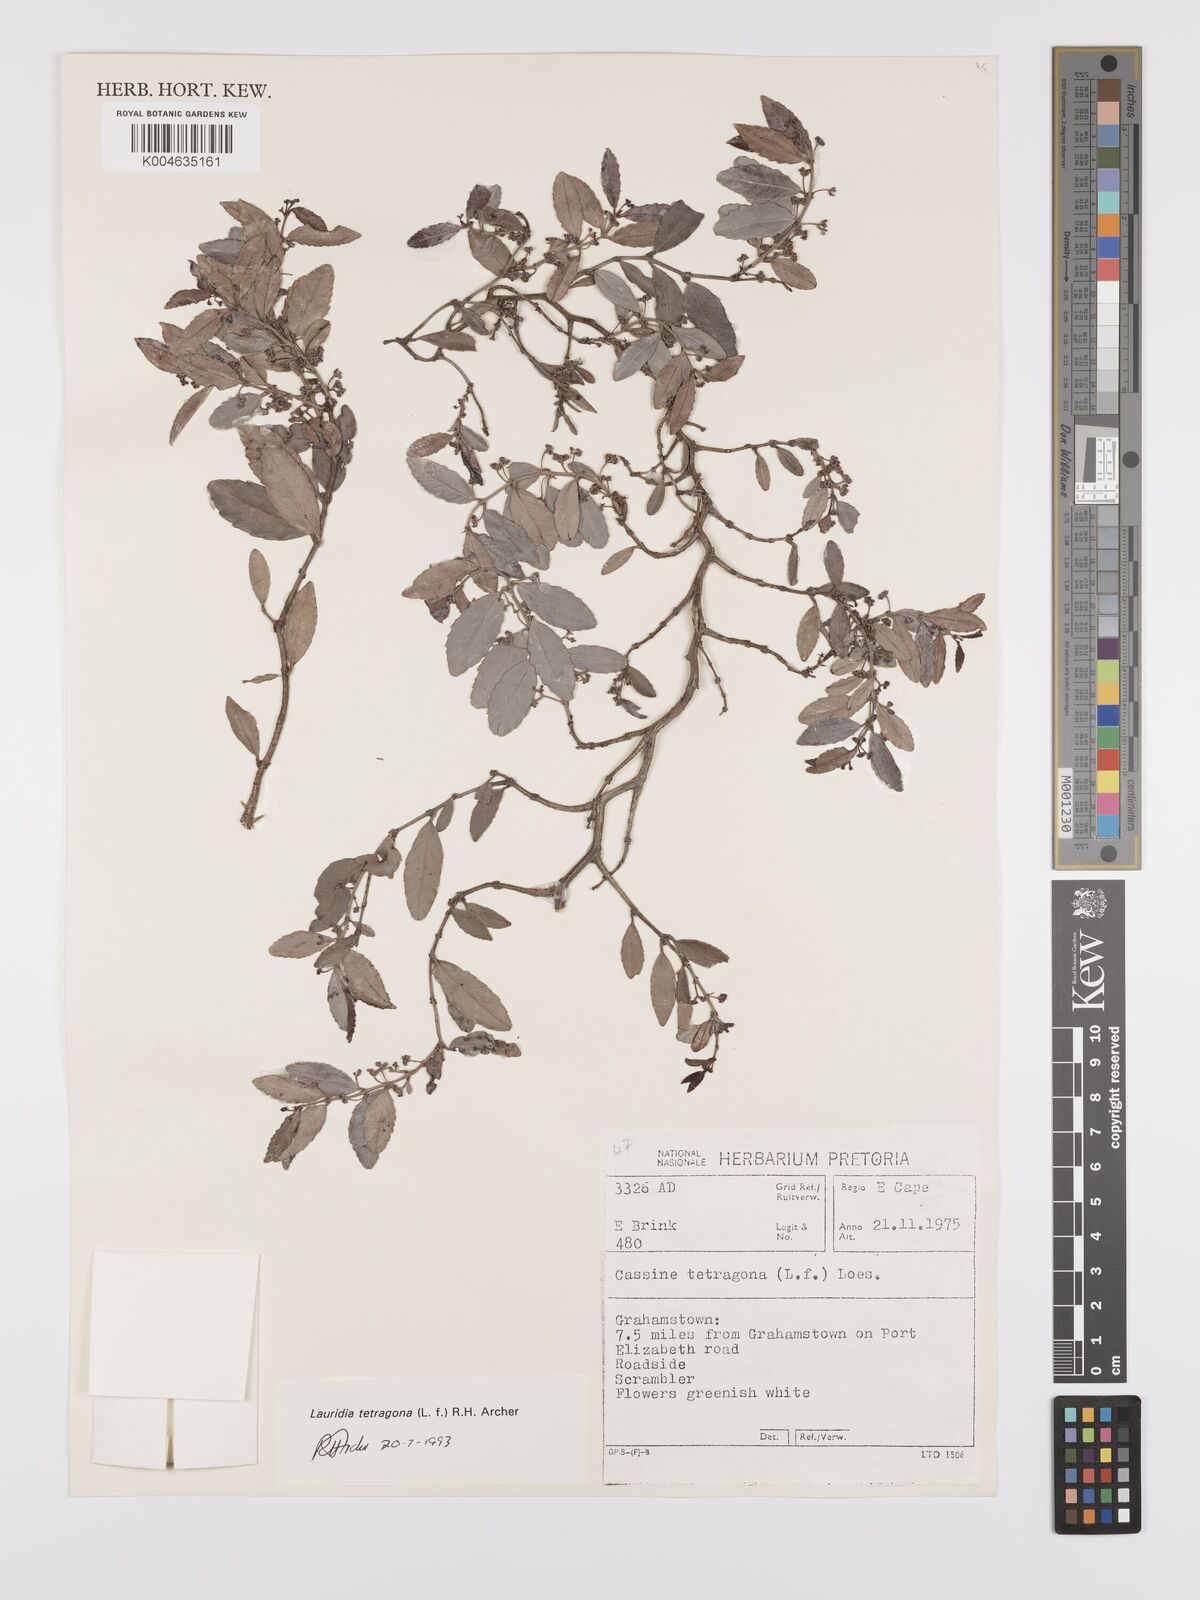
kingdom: Plantae
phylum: Tracheophyta
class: Magnoliopsida
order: Celastrales
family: Celastraceae
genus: Lauridia
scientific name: Lauridia tetragona
